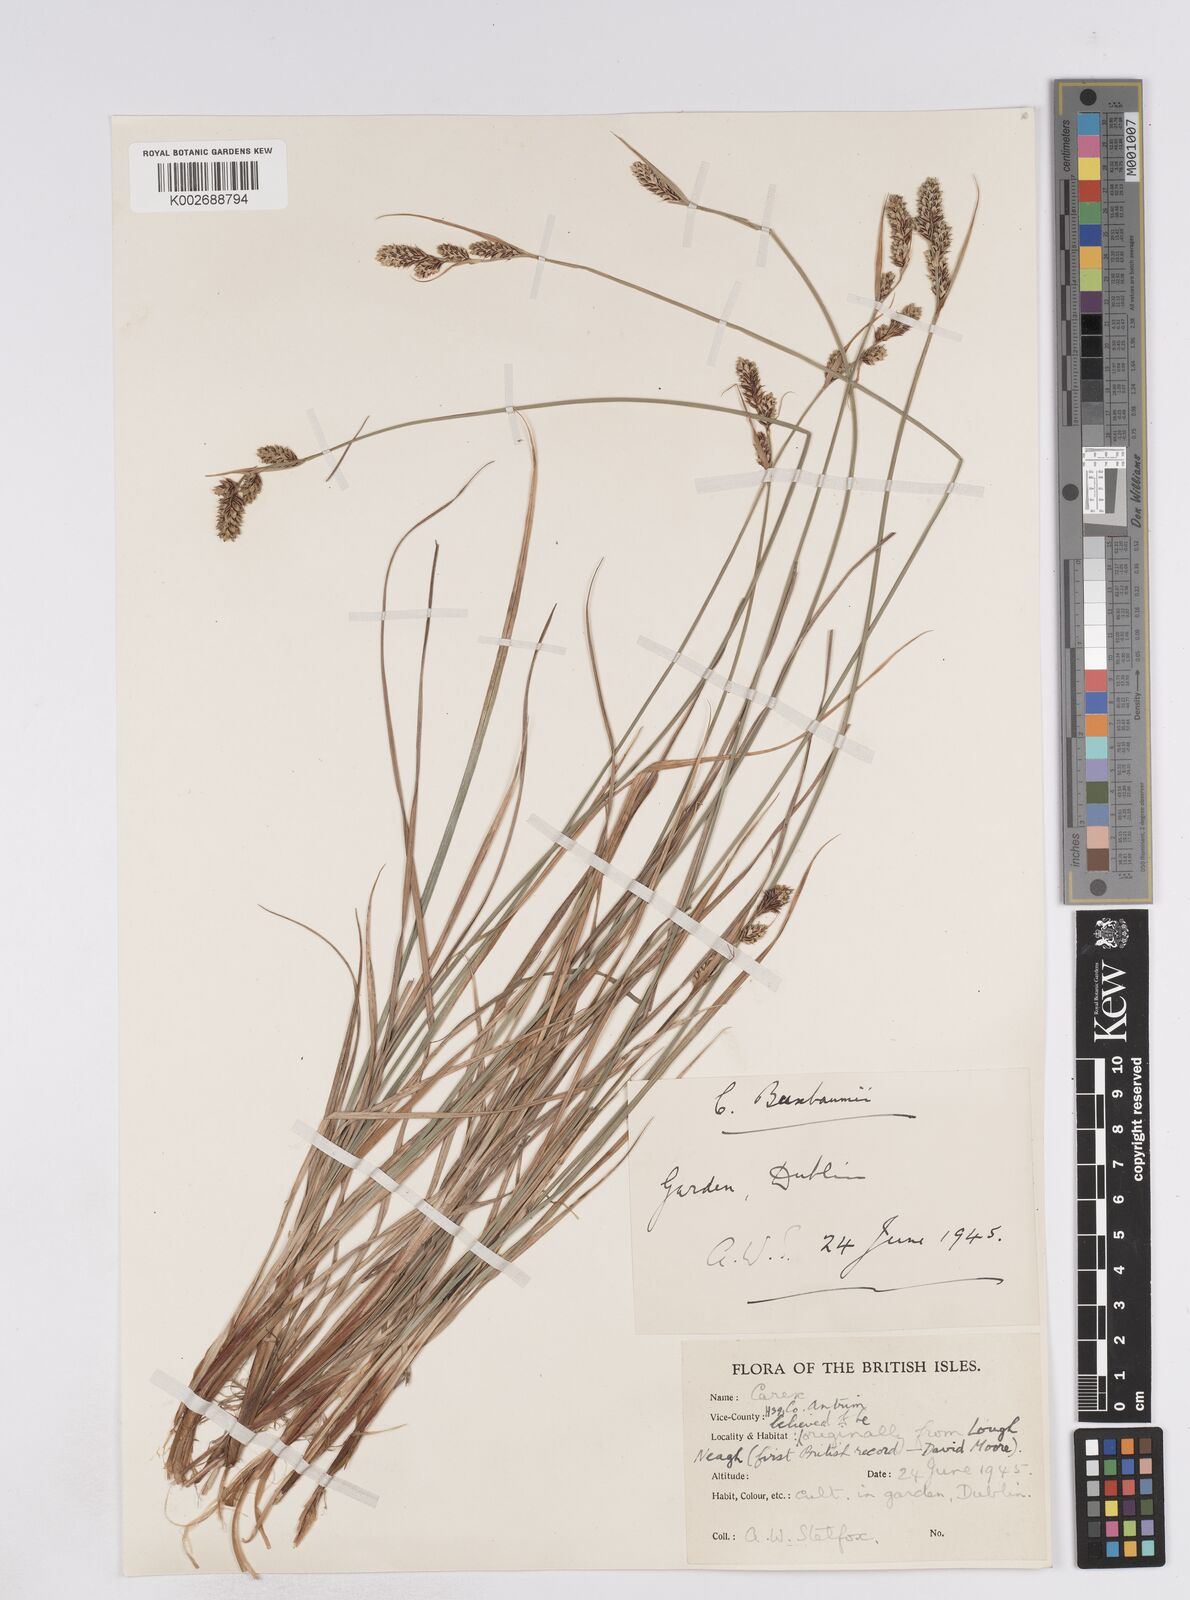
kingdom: Plantae
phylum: Tracheophyta
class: Liliopsida
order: Poales
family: Cyperaceae
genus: Carex
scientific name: Carex buxbaumii
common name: Club sedge
